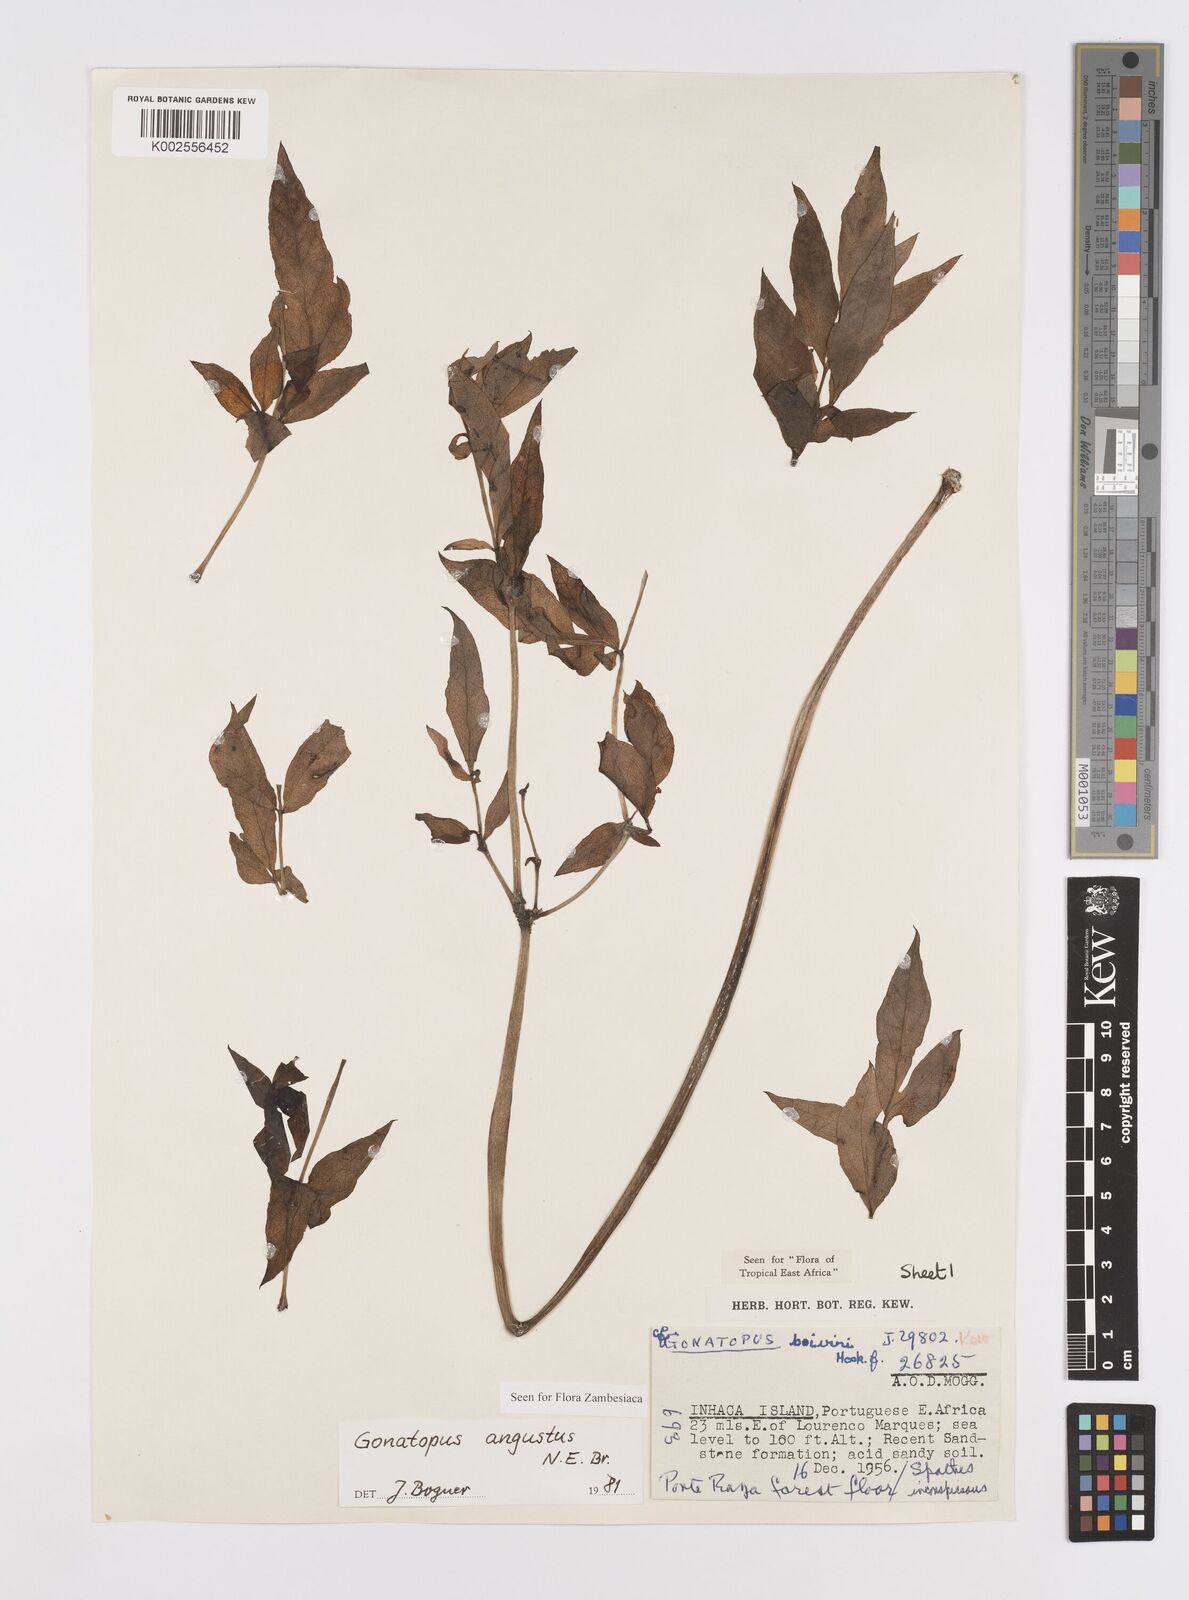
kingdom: Plantae
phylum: Tracheophyta
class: Liliopsida
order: Alismatales
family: Araceae
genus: Gonatopus
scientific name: Gonatopus angustus
